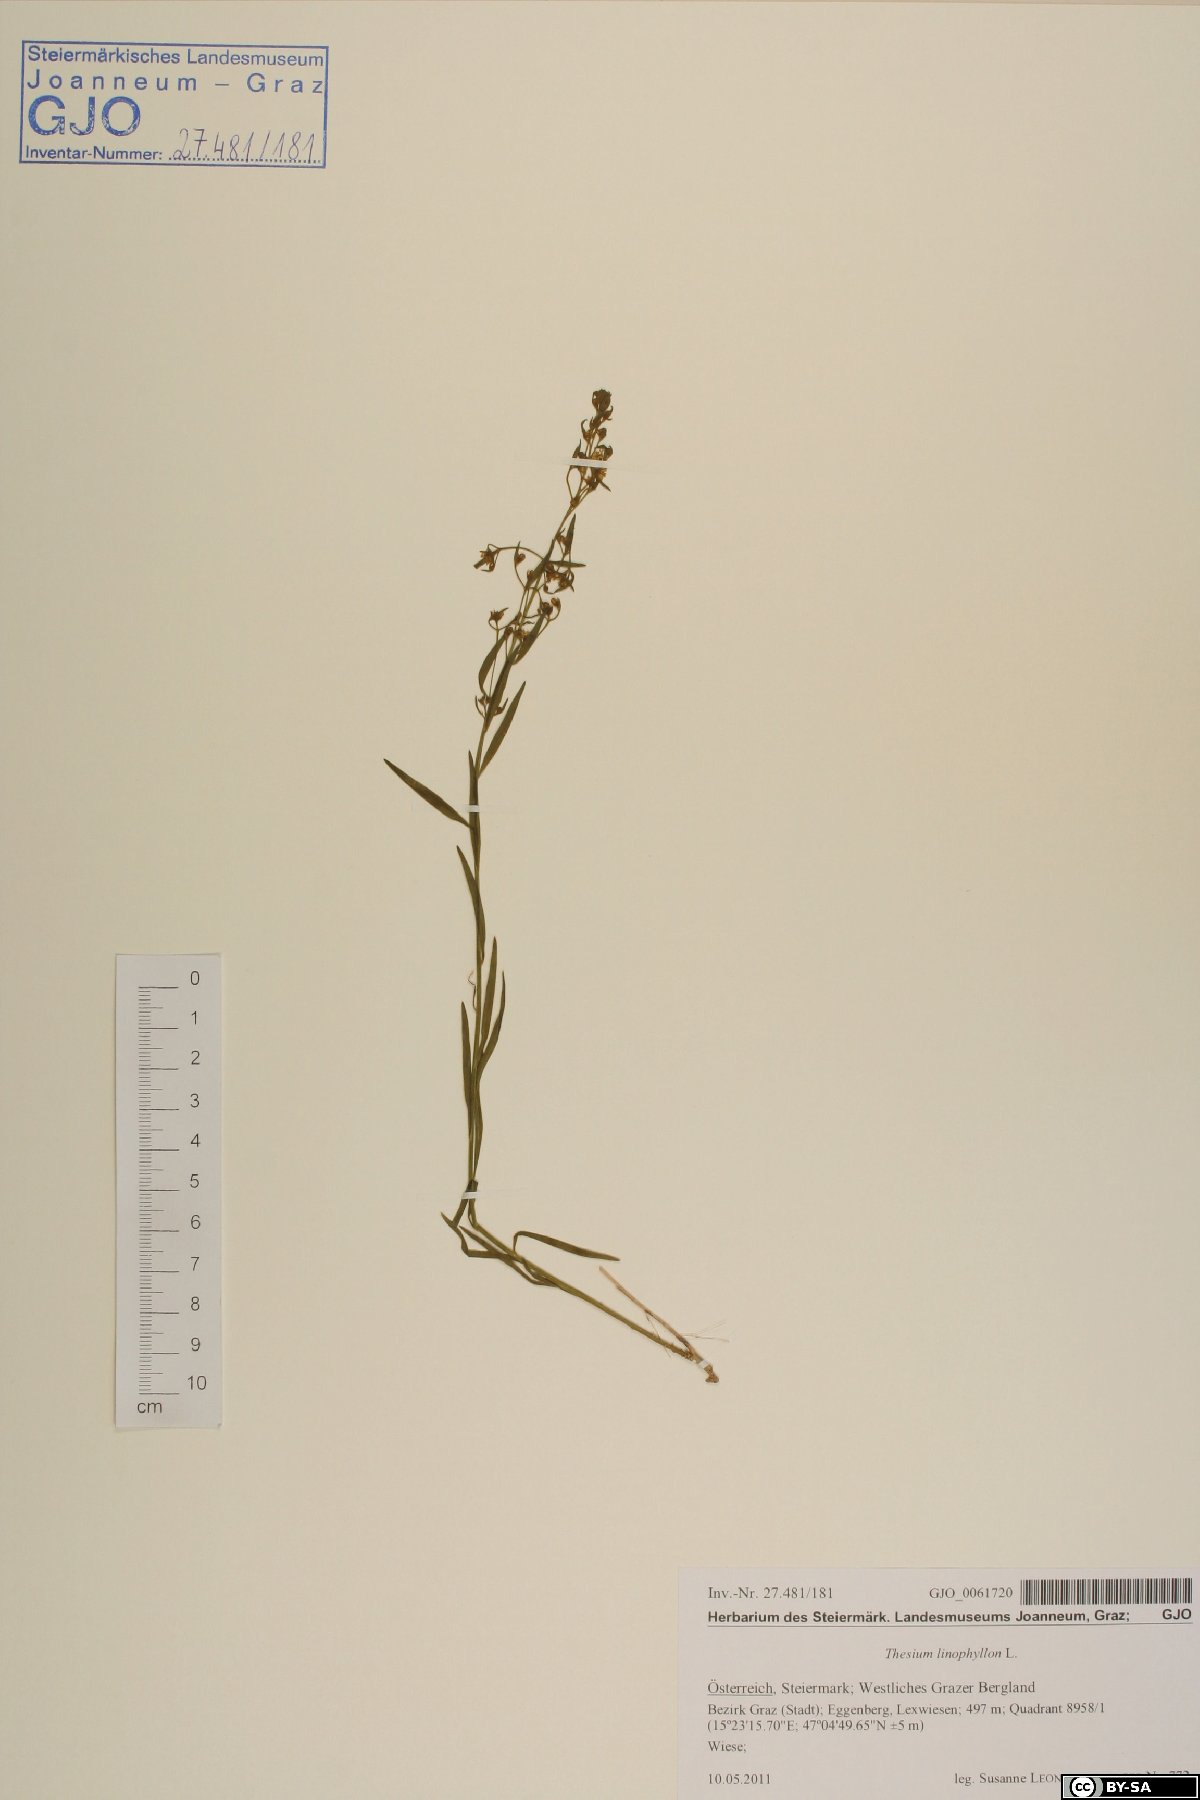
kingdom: Plantae
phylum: Tracheophyta
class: Magnoliopsida
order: Santalales
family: Thesiaceae
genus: Thesium
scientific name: Thesium linophyllon
